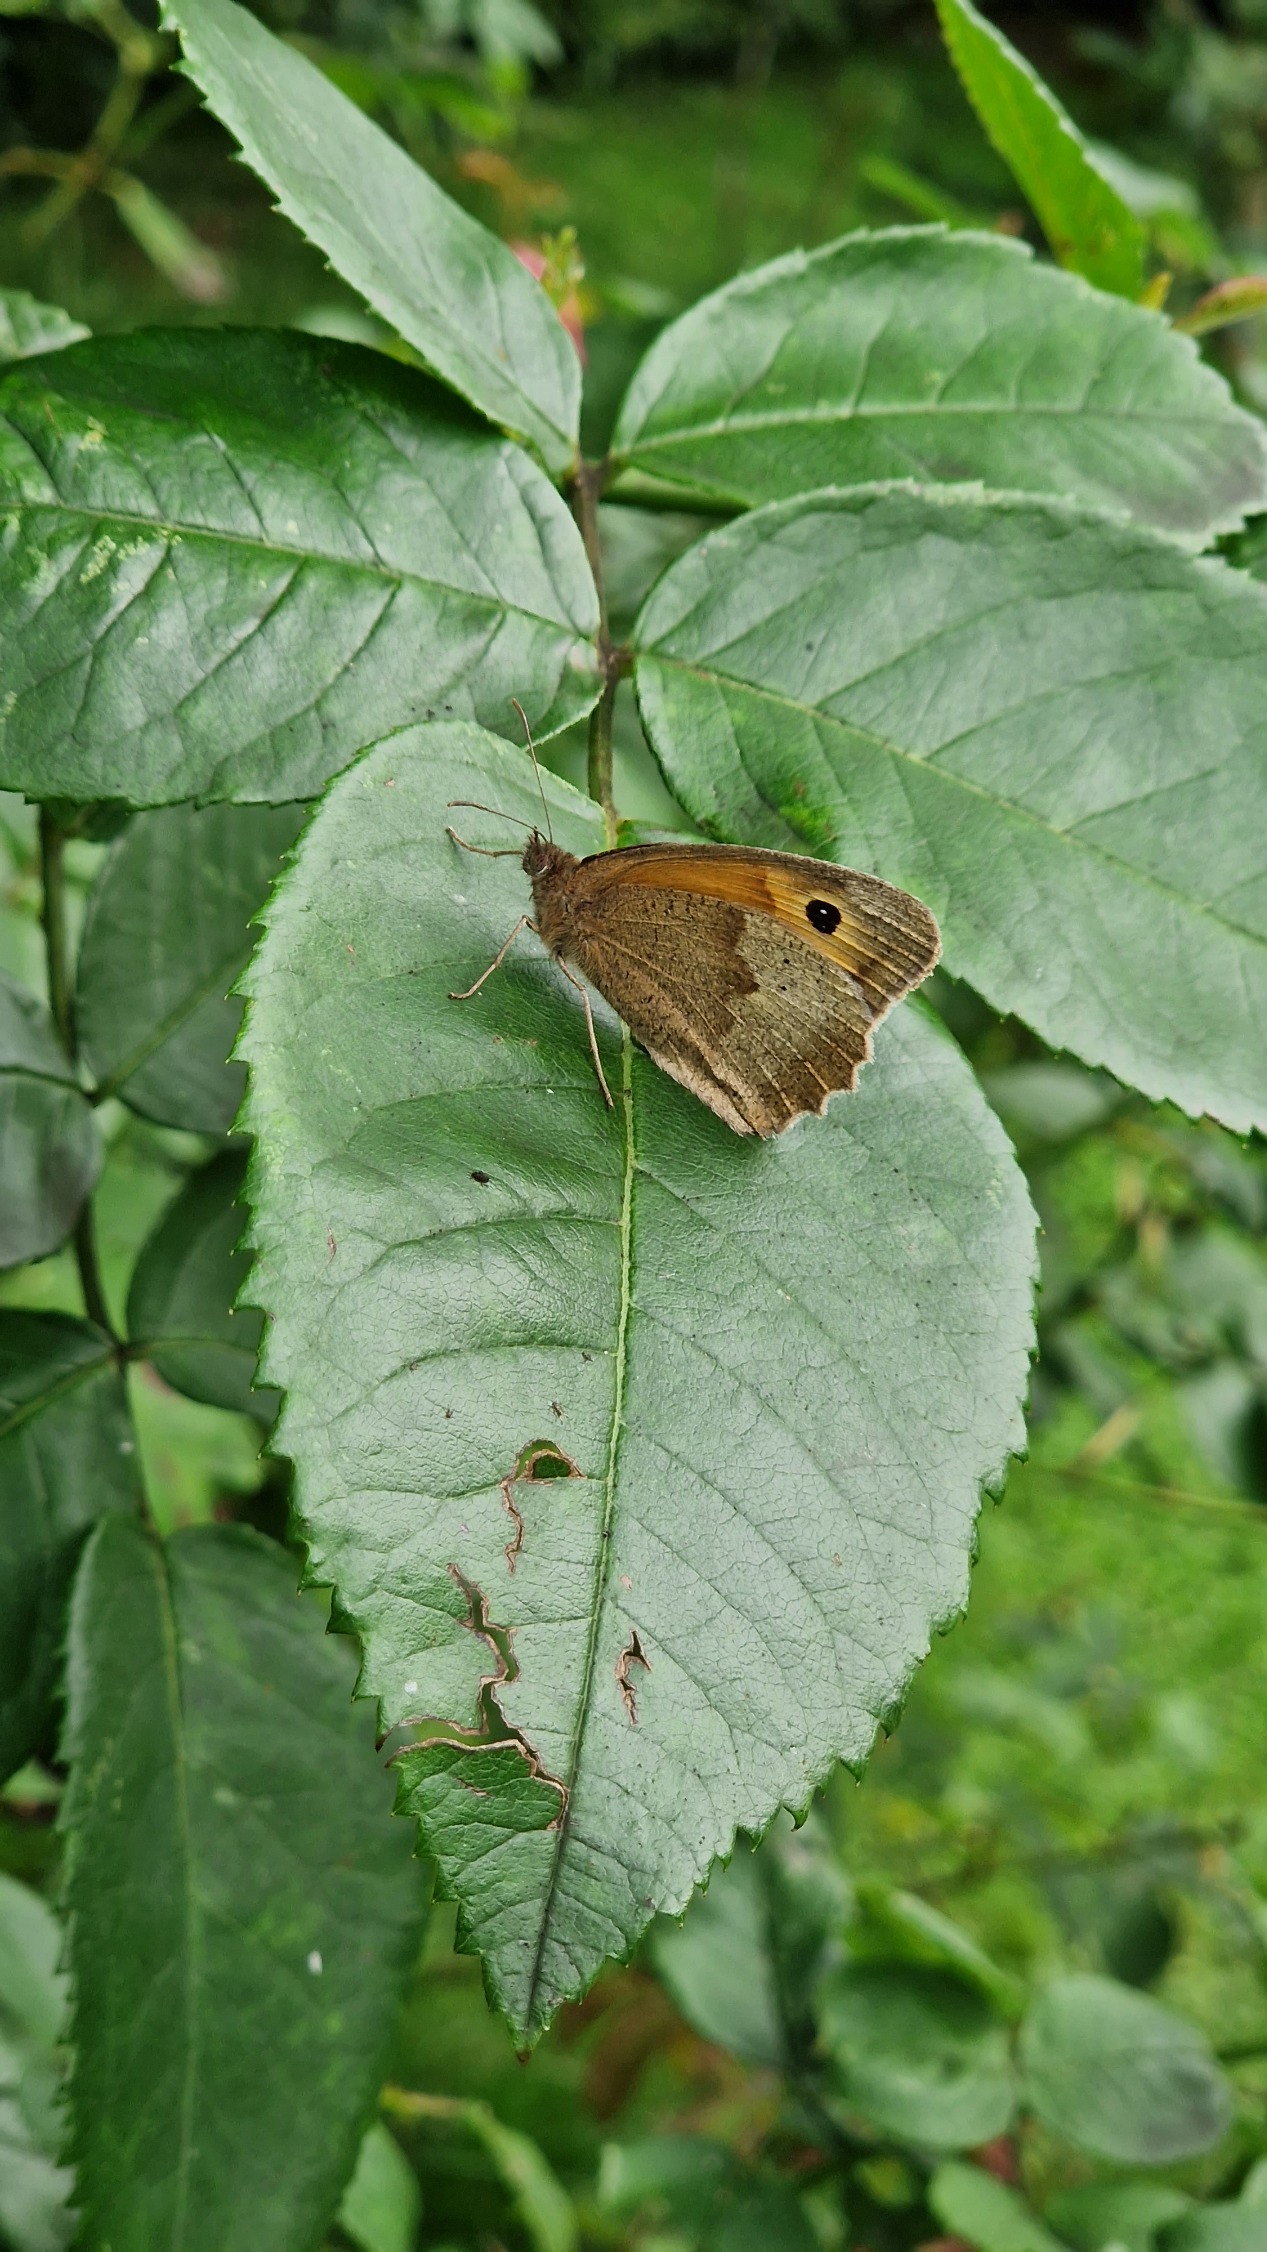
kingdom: Animalia
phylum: Arthropoda
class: Insecta
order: Lepidoptera
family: Nymphalidae
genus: Maniola
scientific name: Maniola jurtina
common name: Græsrandøje
